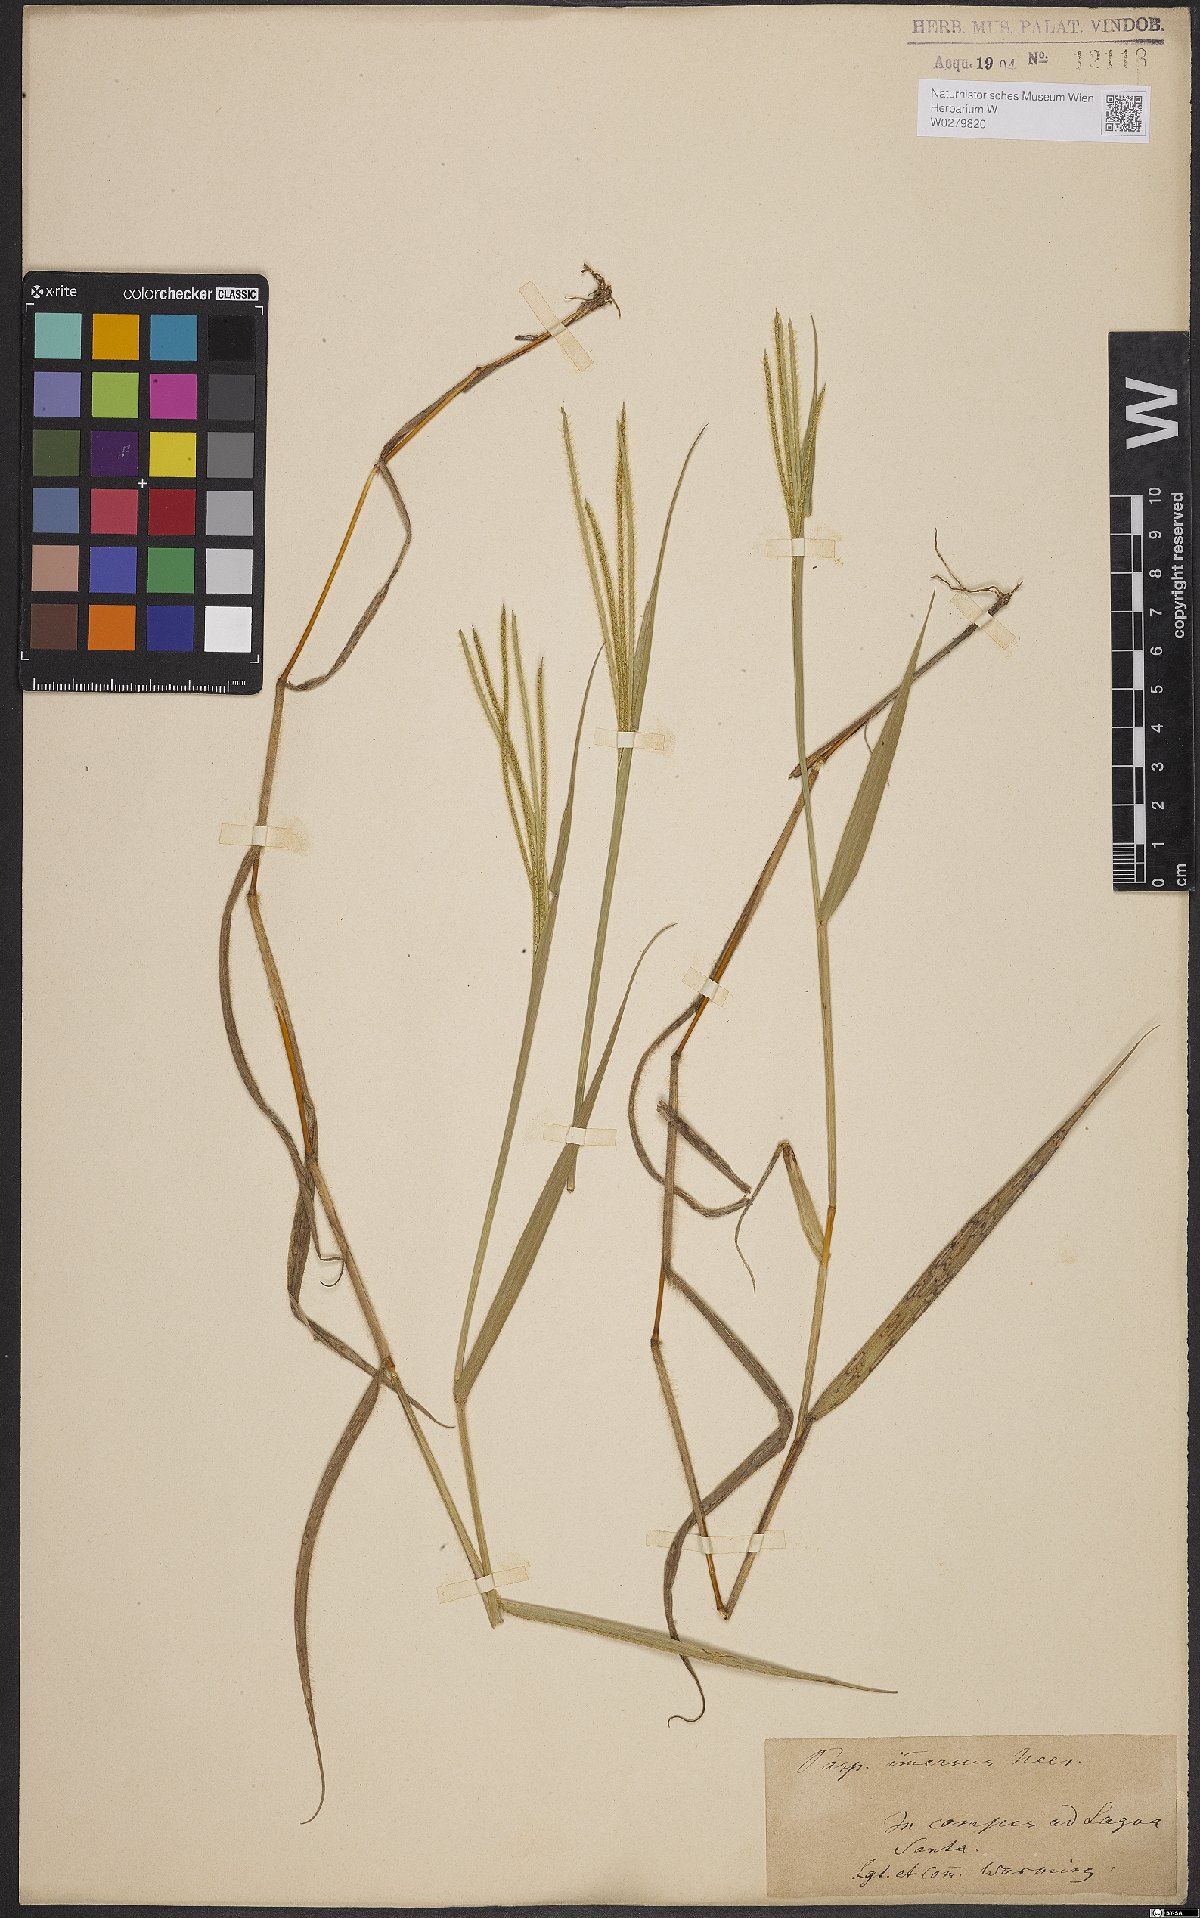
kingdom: Plantae
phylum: Tracheophyta
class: Liliopsida
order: Poales
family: Poaceae
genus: Axonopus
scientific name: Axonopus aureus
